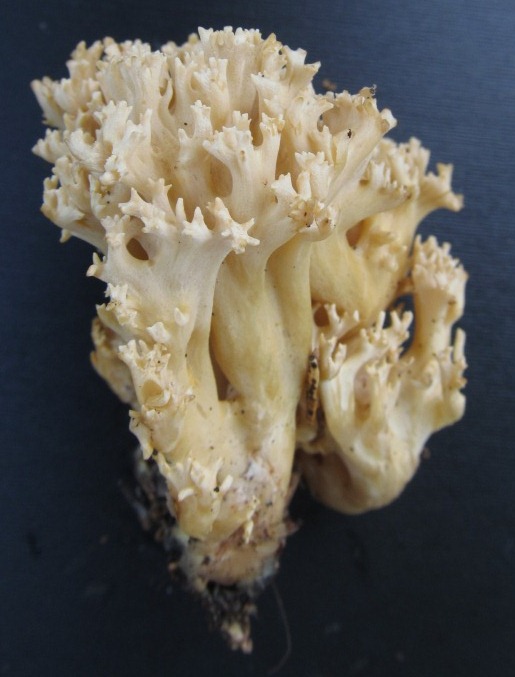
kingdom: Fungi
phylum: Basidiomycota
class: Agaricomycetes
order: Gomphales
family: Gomphaceae
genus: Phaeoclavulina
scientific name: Phaeoclavulina eumorpha
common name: gran-koralsvamp
